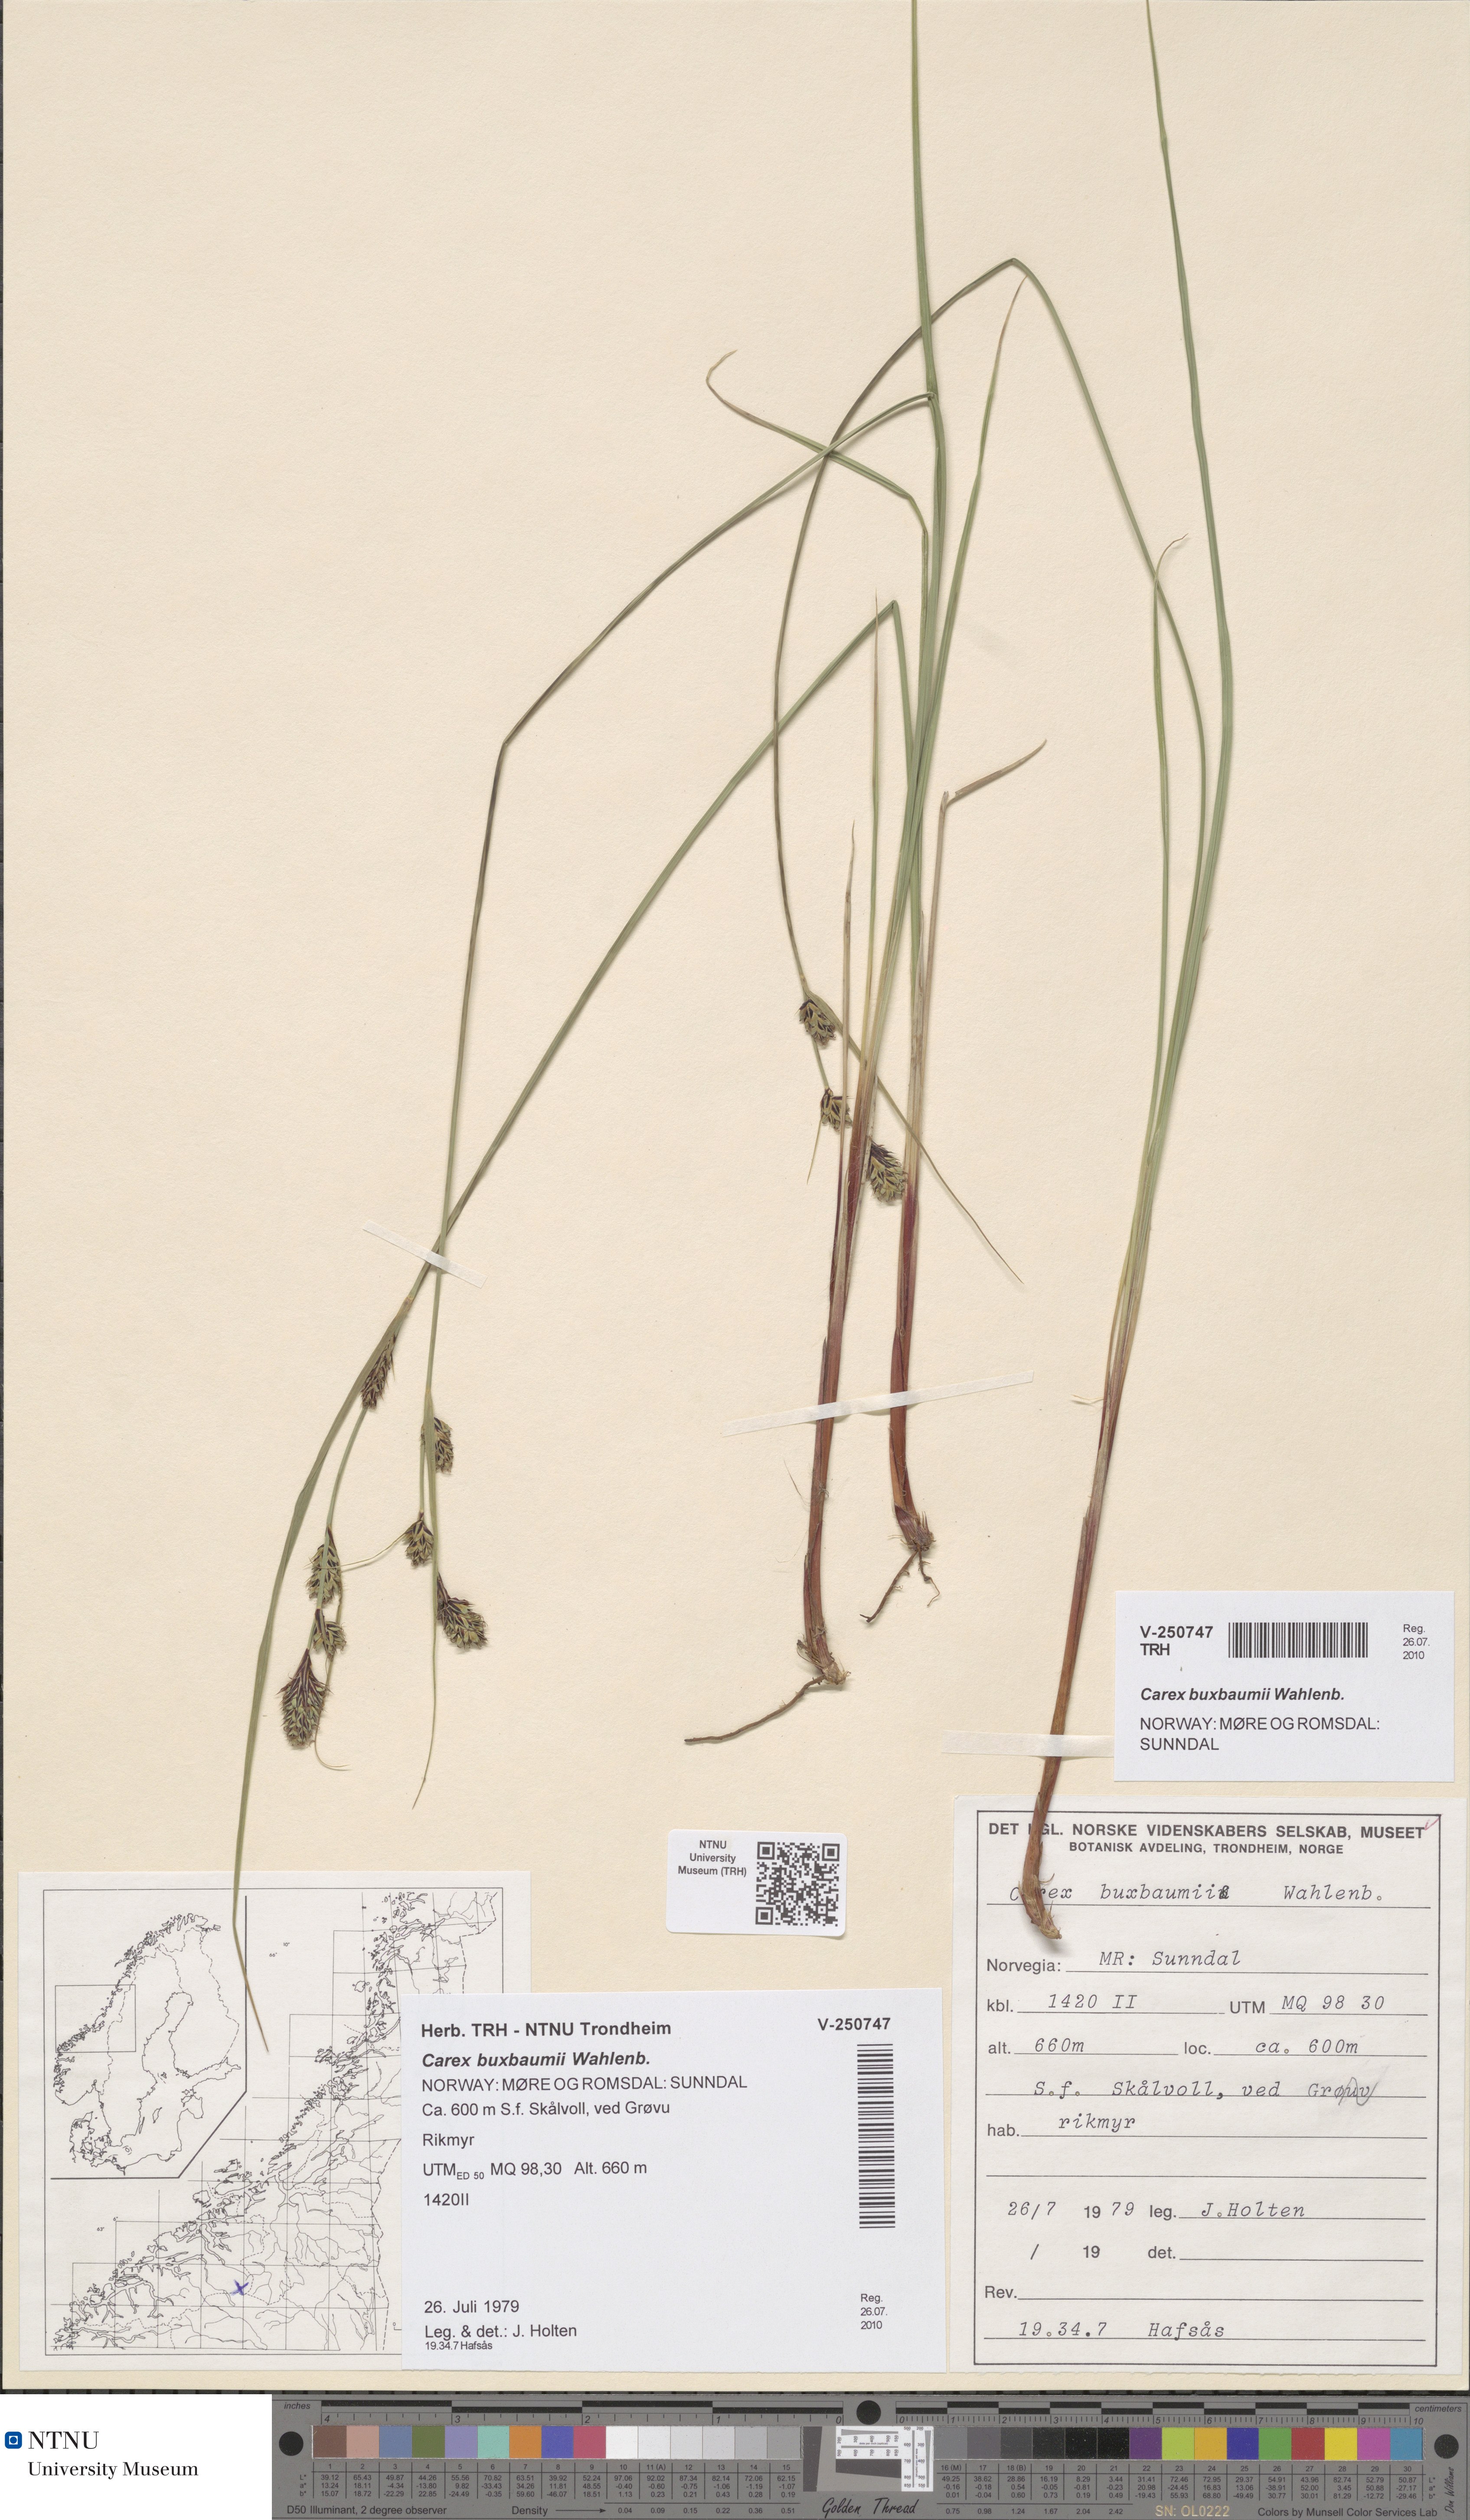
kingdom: Plantae
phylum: Tracheophyta
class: Liliopsida
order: Poales
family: Cyperaceae
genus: Carex
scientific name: Carex buxbaumii
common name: Club sedge
